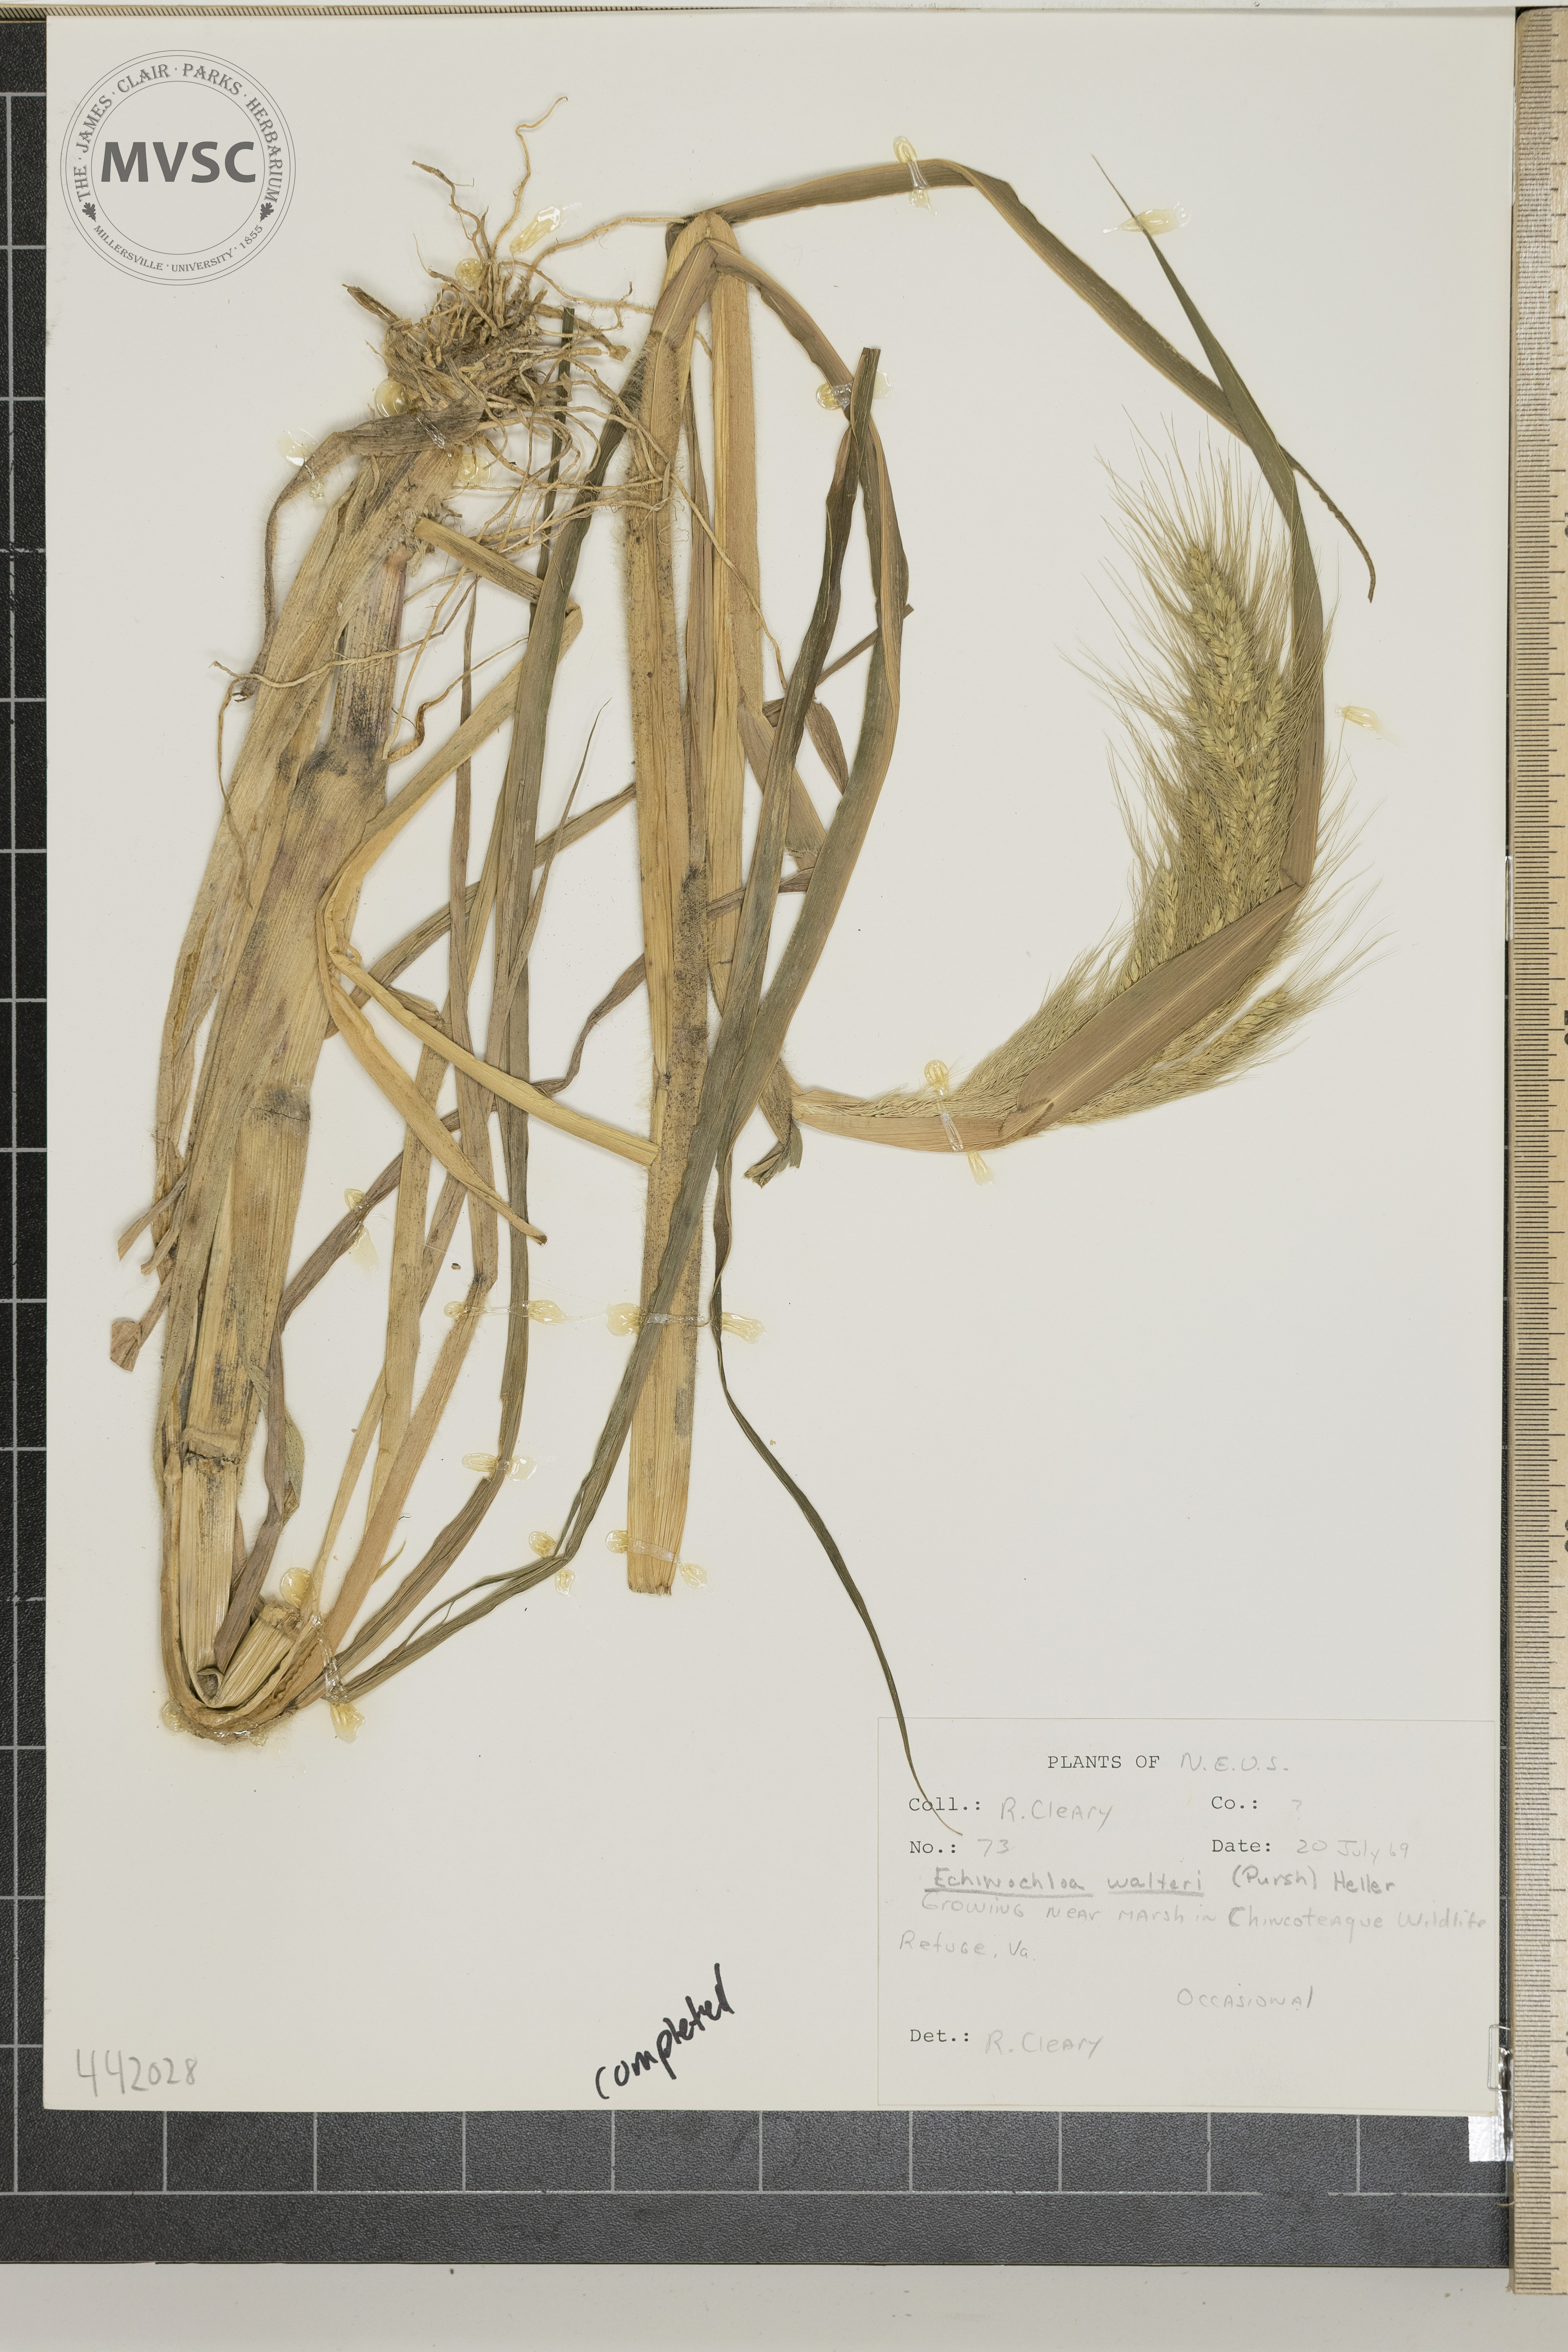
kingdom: Plantae
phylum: Tracheophyta
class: Liliopsida
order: Poales
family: Poaceae
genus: Echinochloa
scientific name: Echinochloa walteri
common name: Coast barnyard grass
